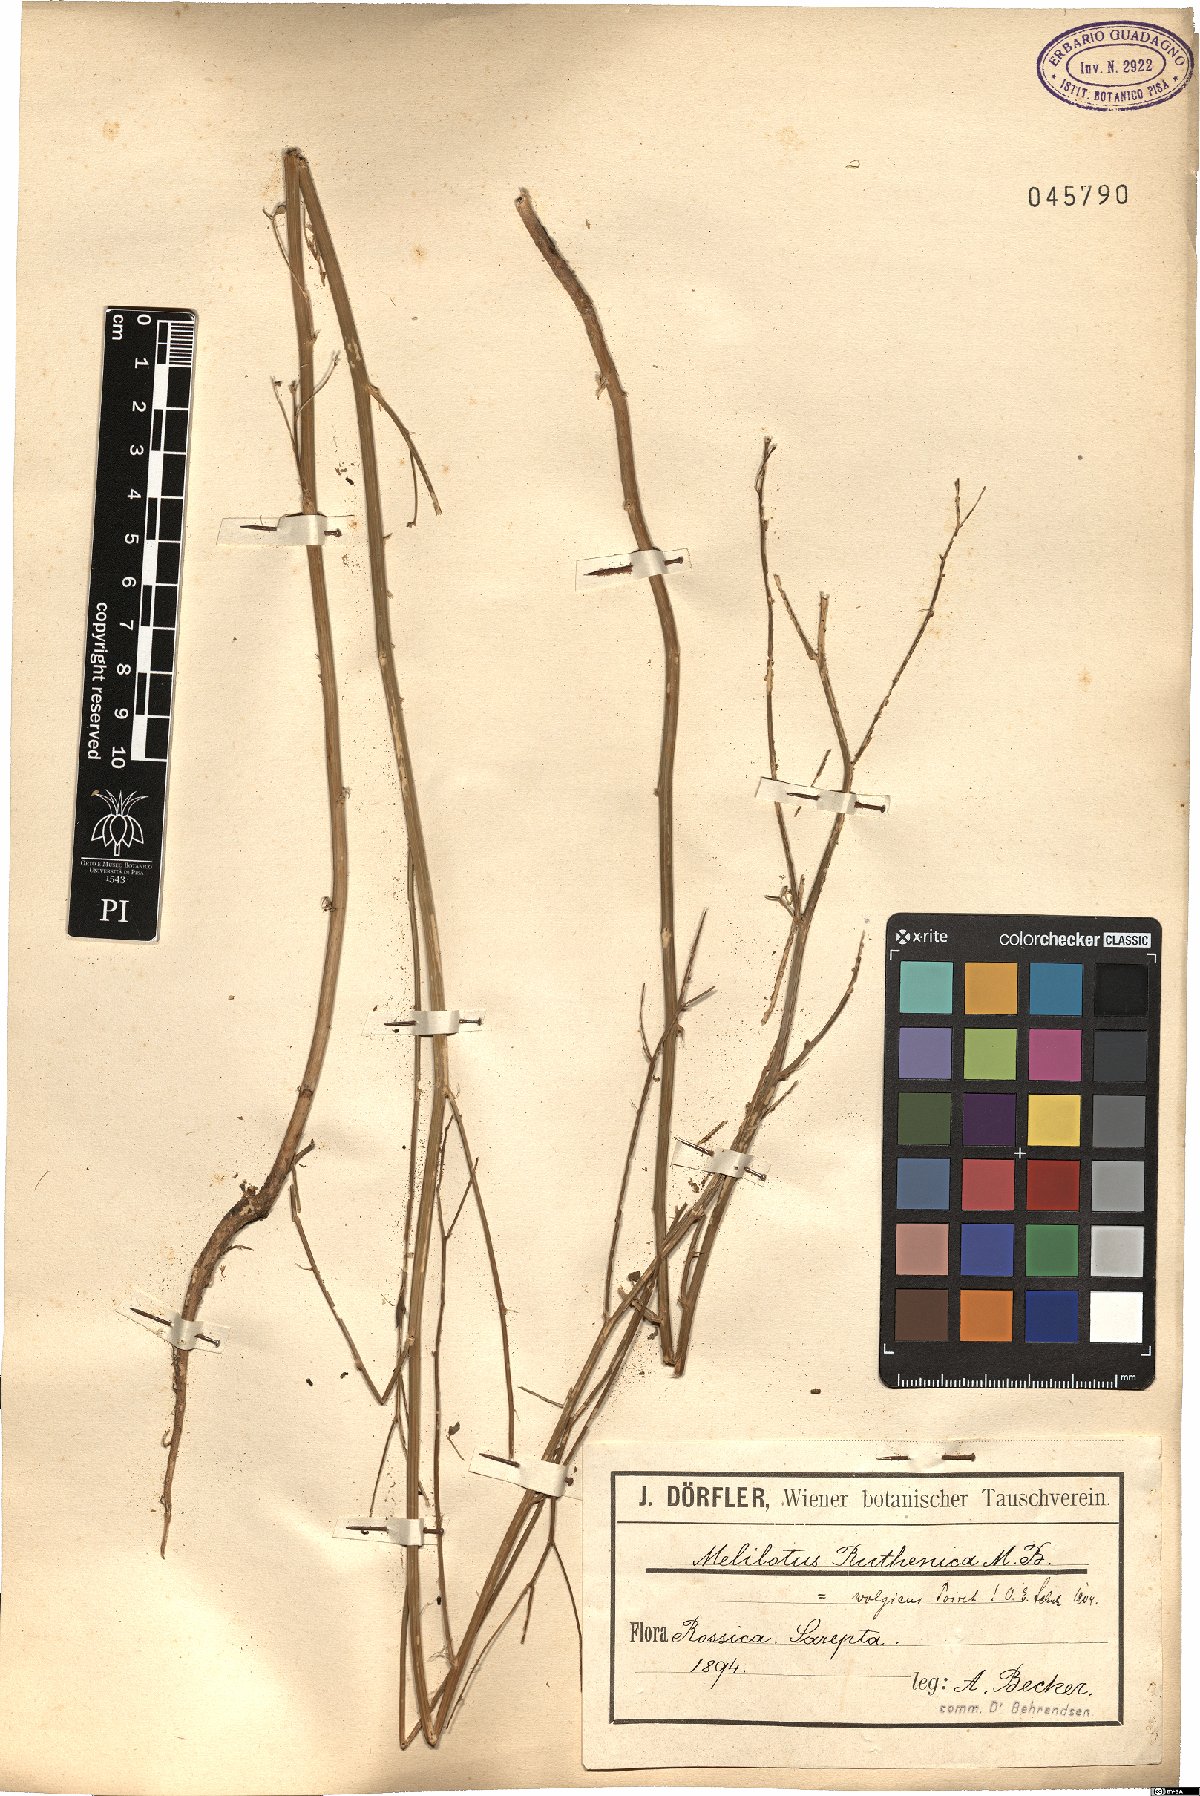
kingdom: Plantae
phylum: Tracheophyta
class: Magnoliopsida
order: Fabales
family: Fabaceae
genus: Melilotus
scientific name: Melilotus wolgicus
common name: Volga sweet-clover
